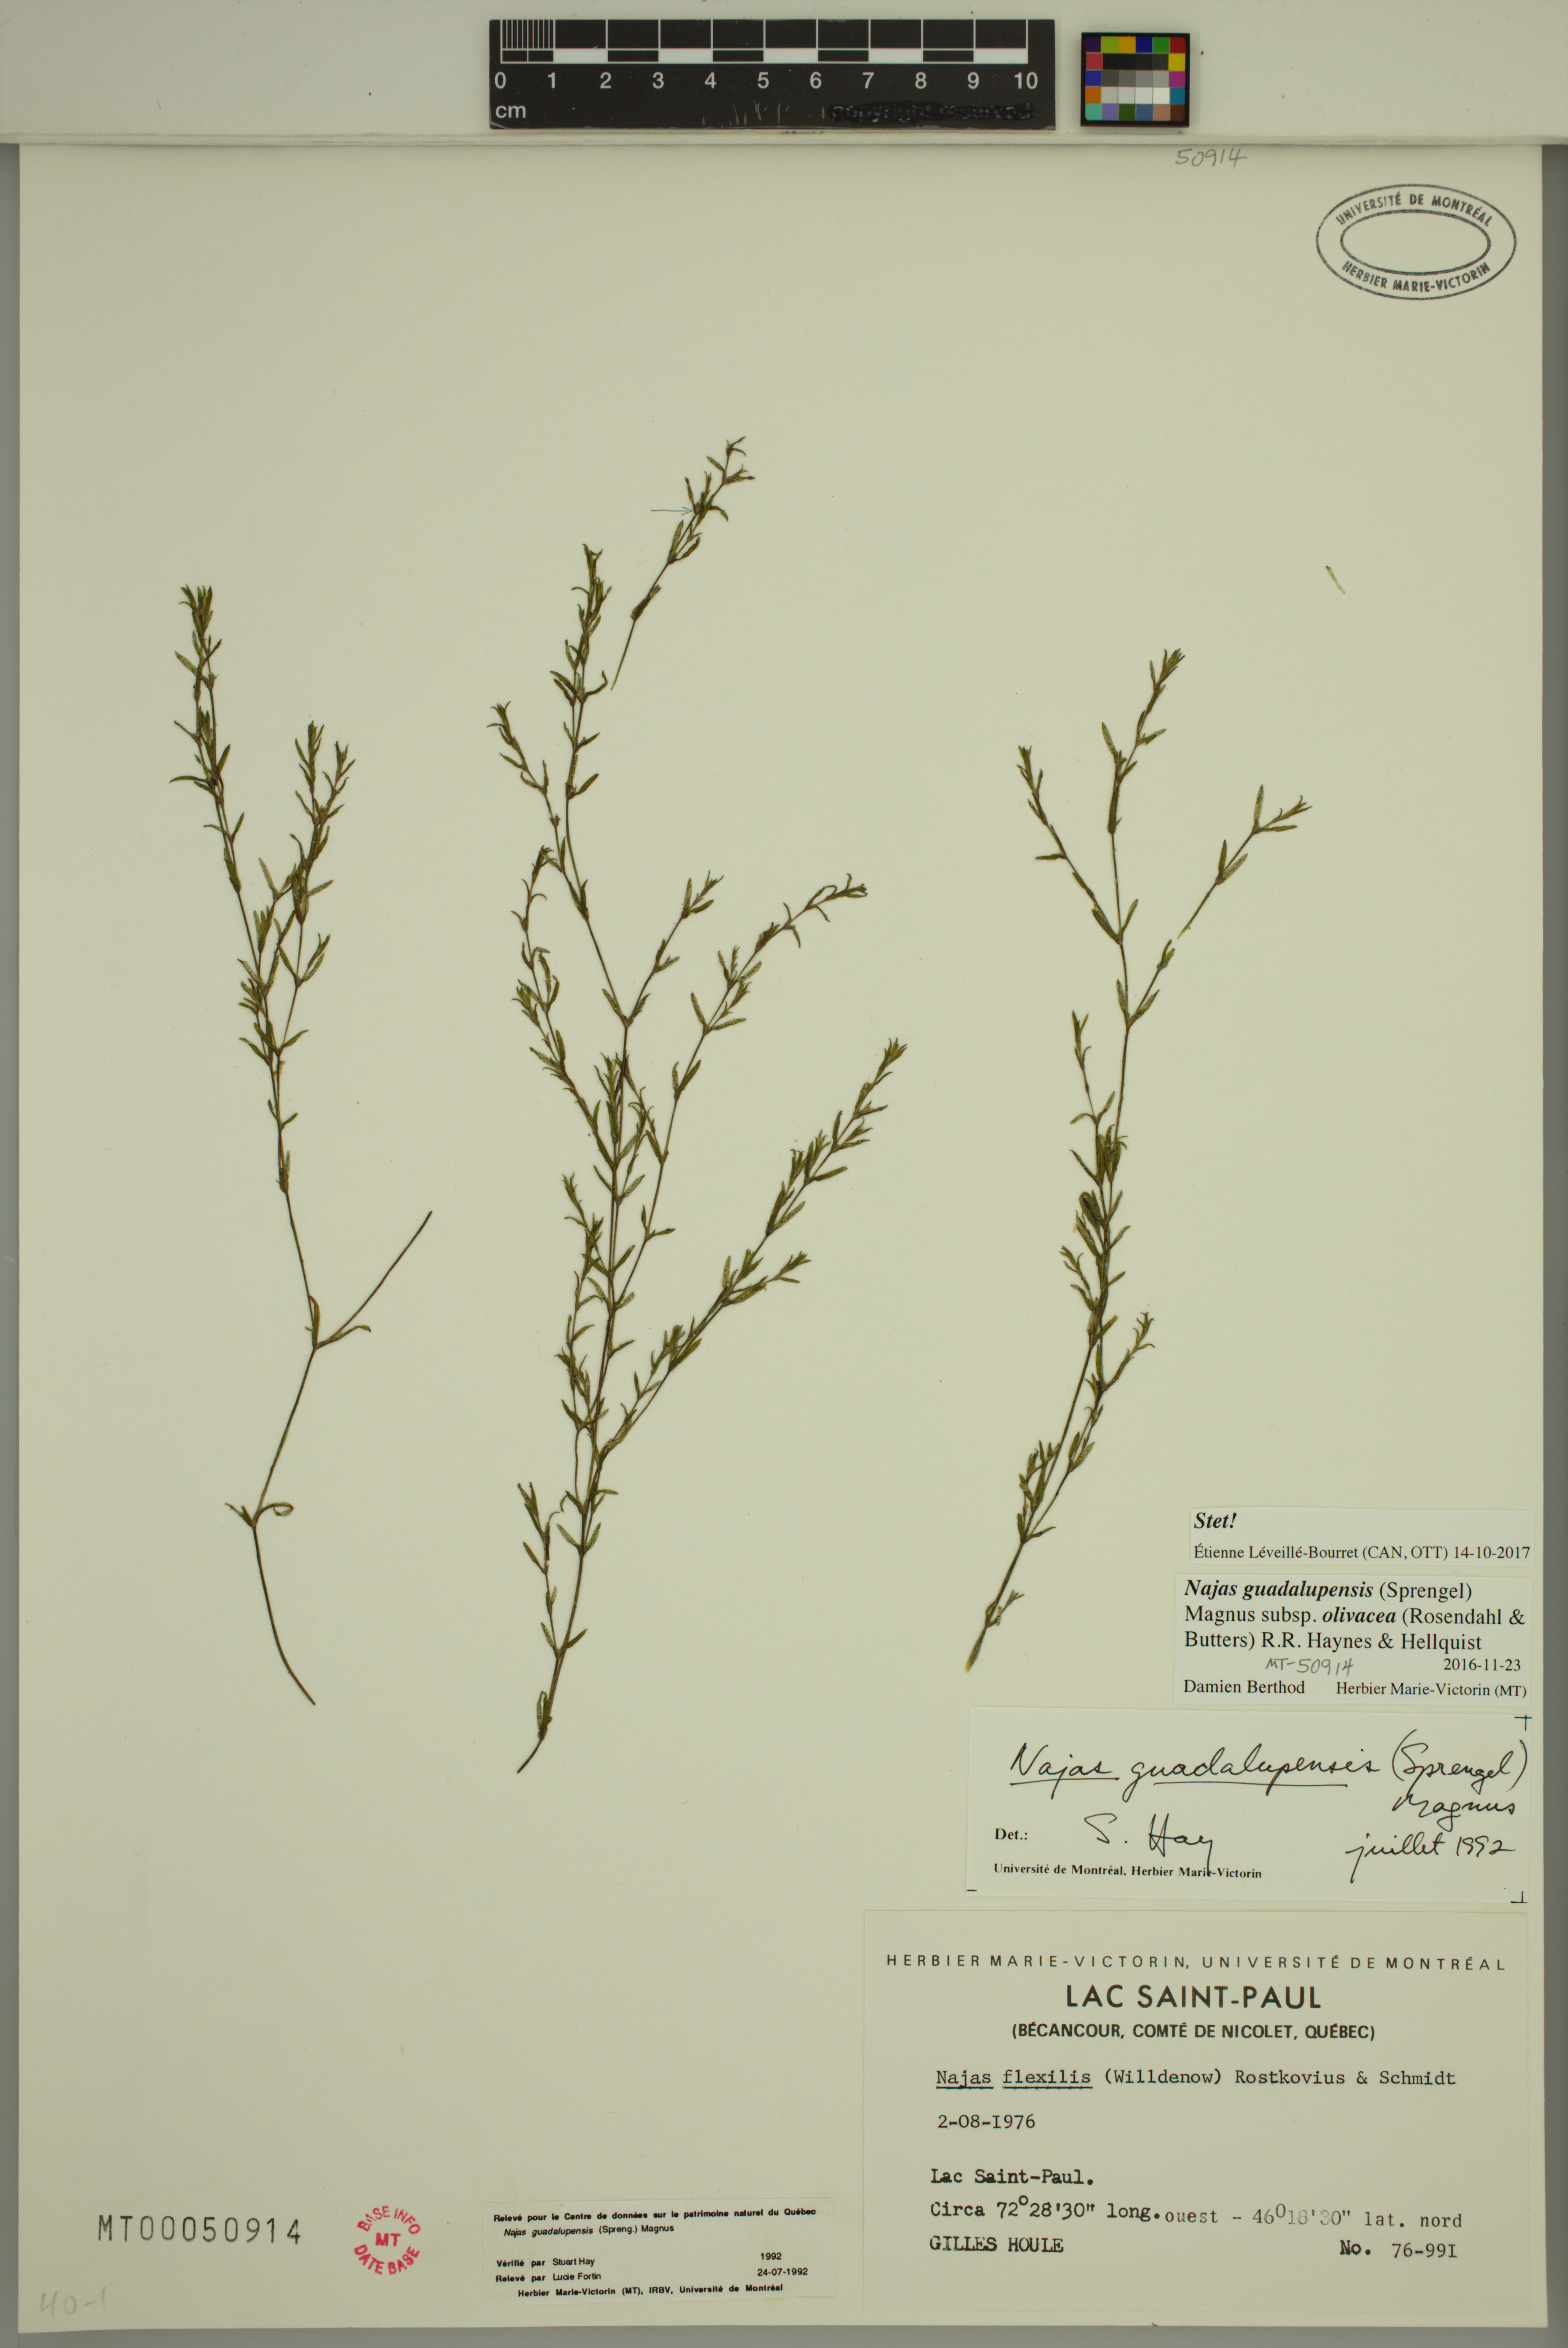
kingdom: Plantae
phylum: Tracheophyta
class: Liliopsida
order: Alismatales
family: Hydrocharitaceae
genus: Najas
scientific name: Najas guadalupensis
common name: Southern naiad
